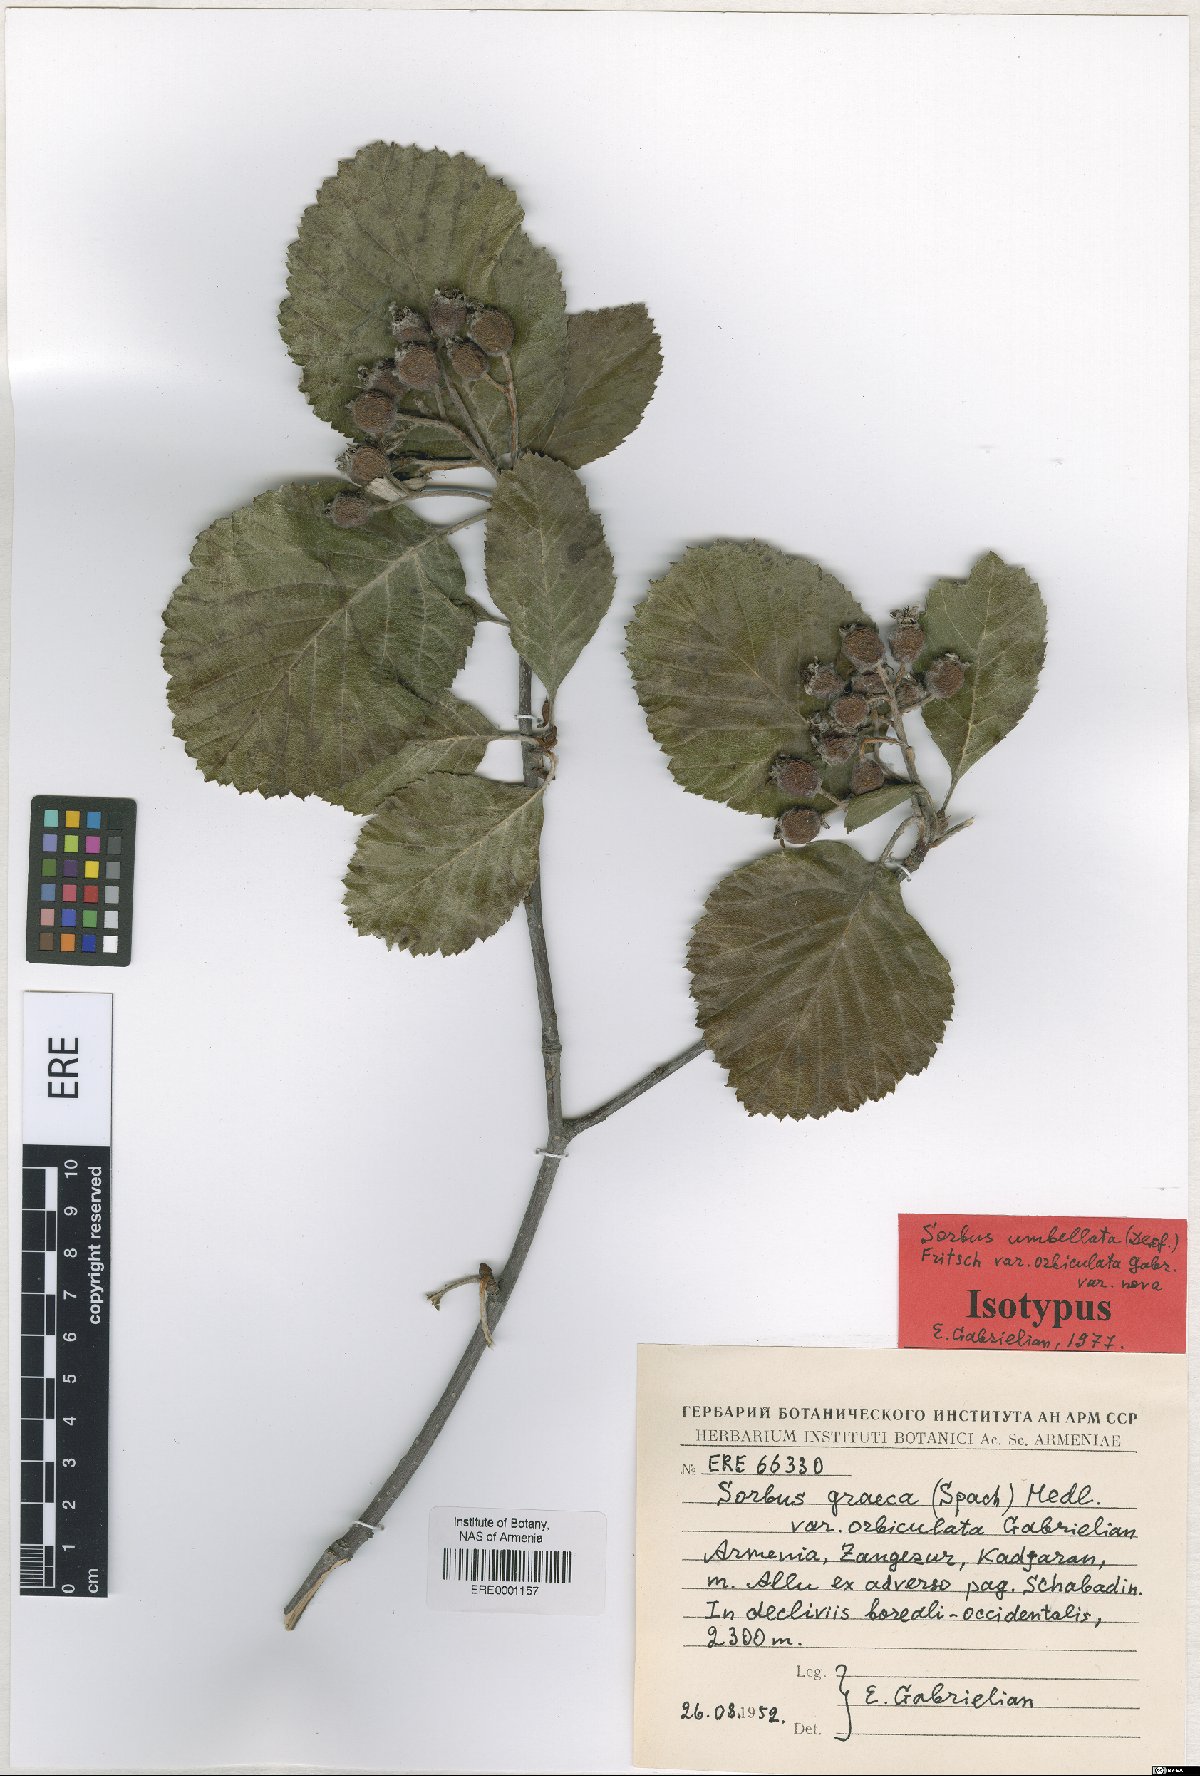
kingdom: Plantae
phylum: Tracheophyta
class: Magnoliopsida
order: Rosales
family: Rosaceae
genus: Aria
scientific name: Aria umbellata
